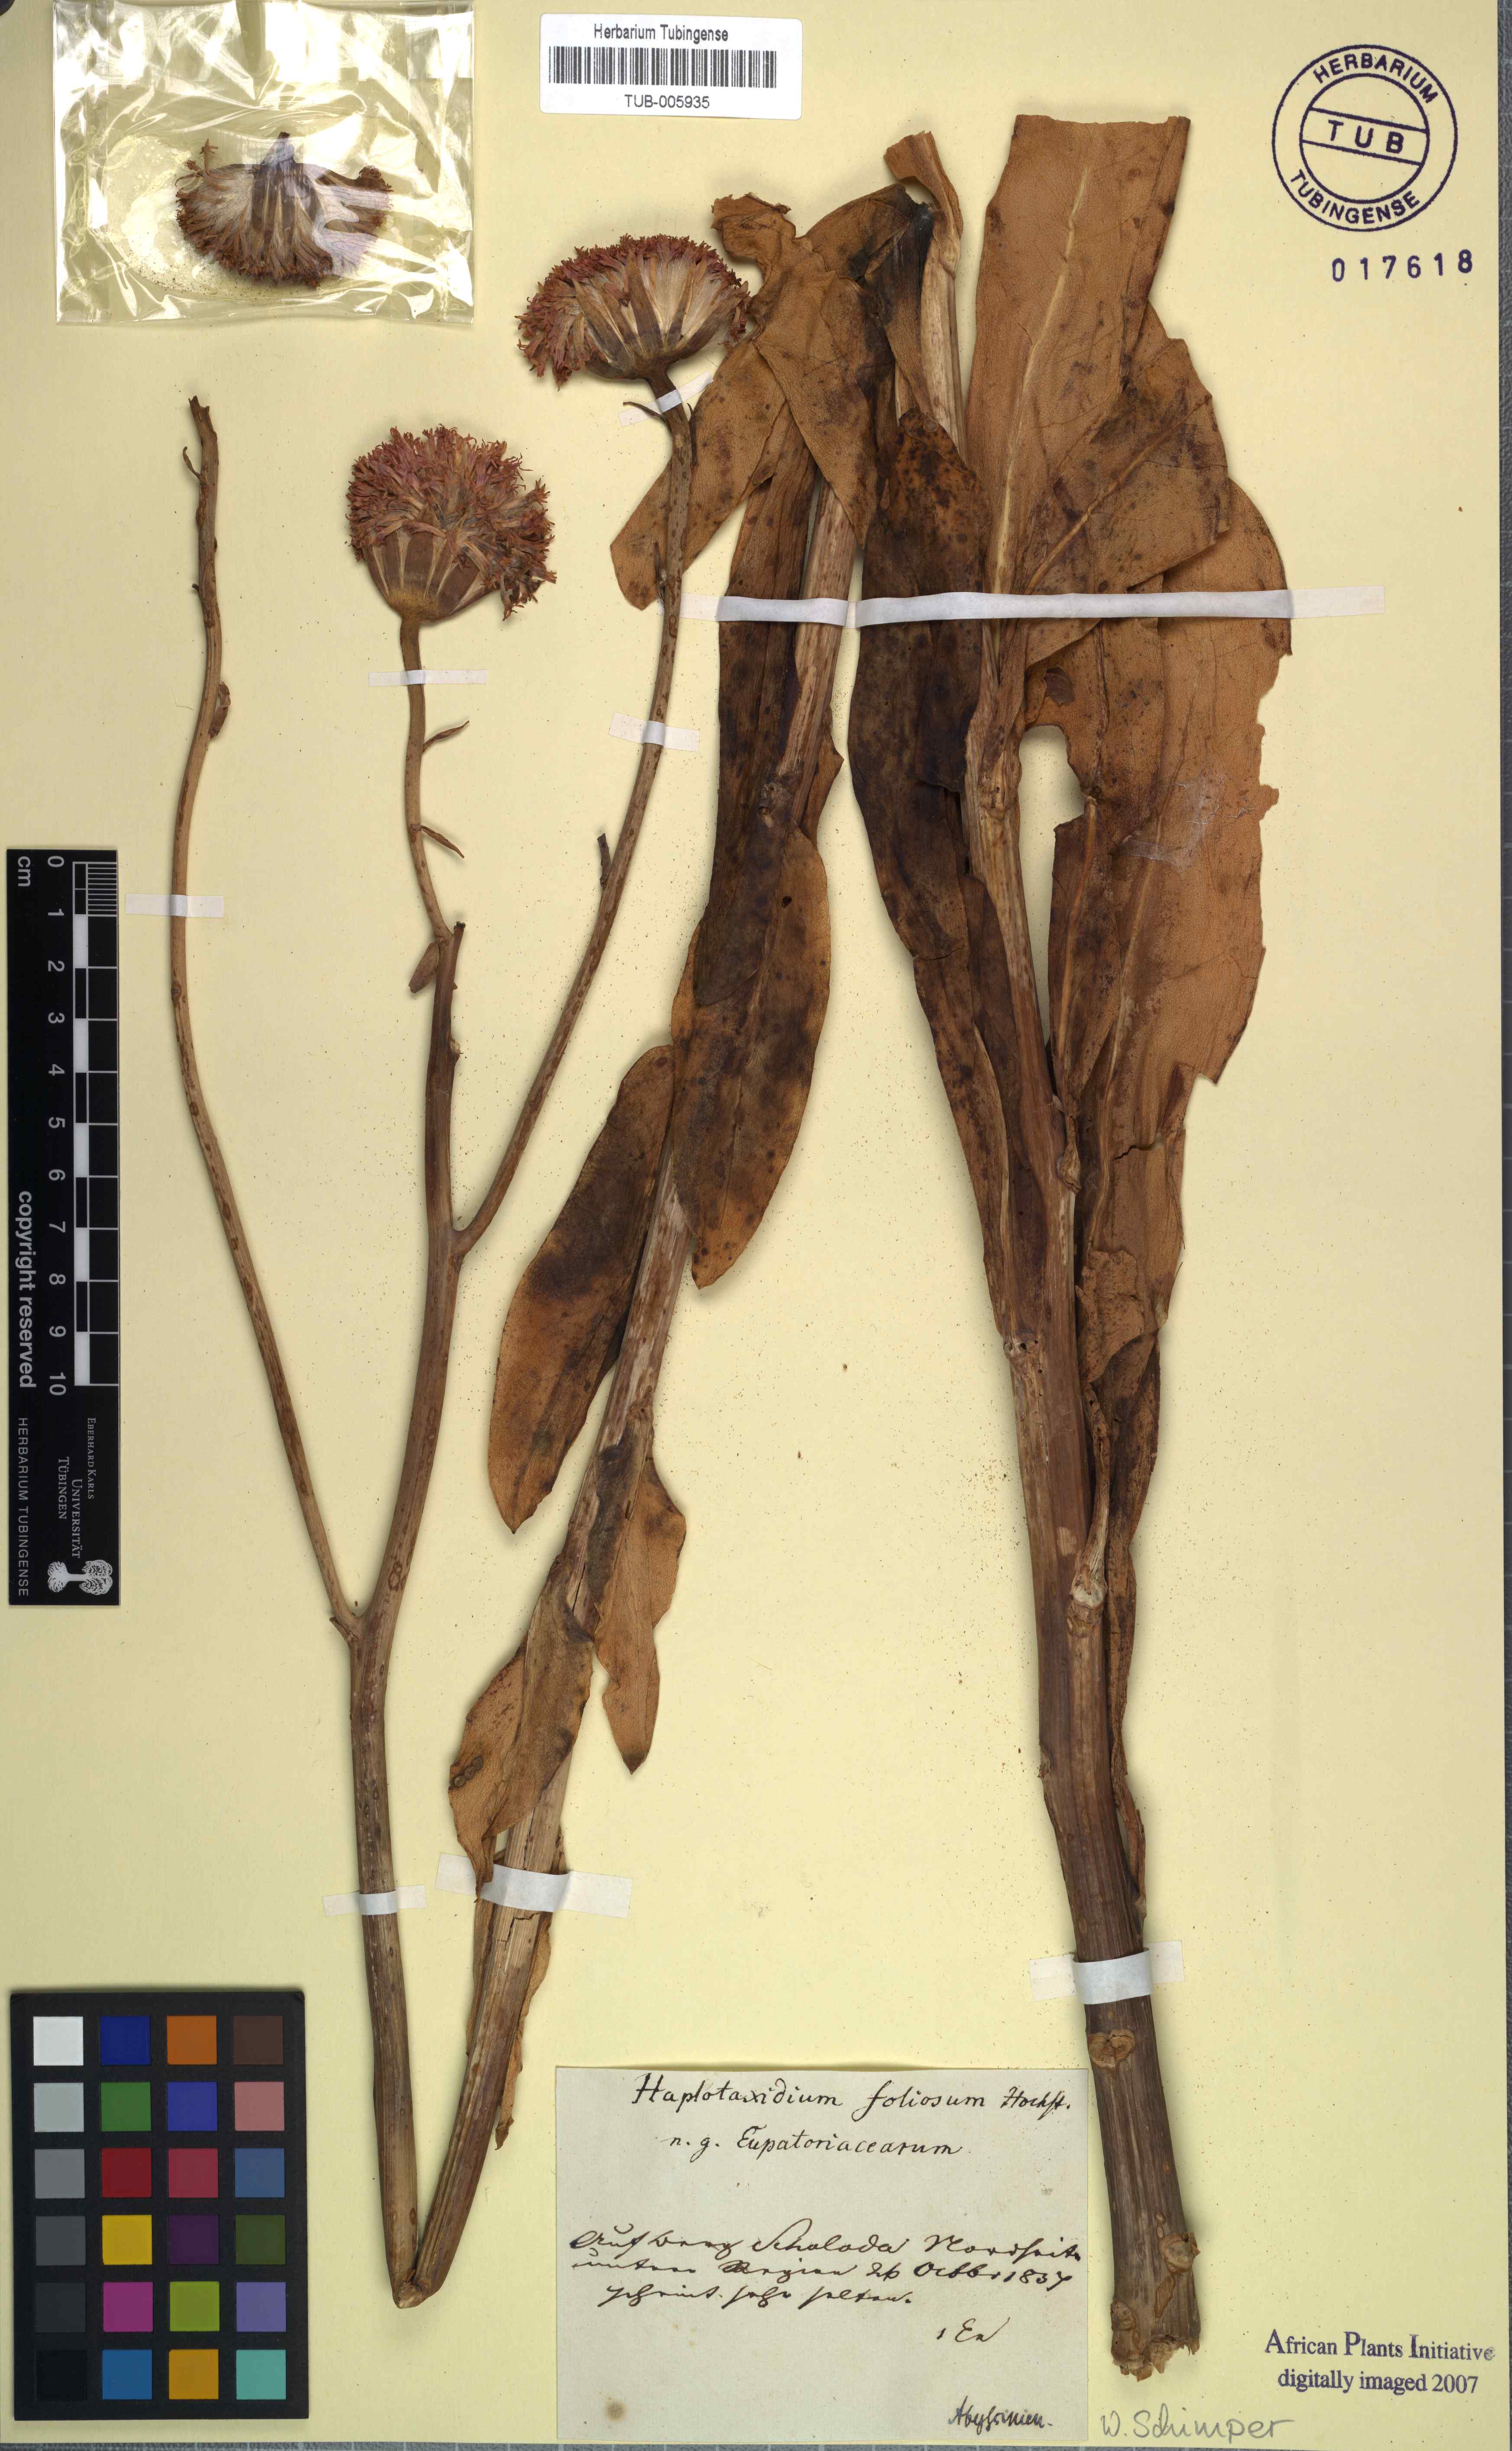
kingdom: Plantae
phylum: Tracheophyta
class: Magnoliopsida
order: Asterales
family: Asteraceae
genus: Saussurea
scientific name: Saussurea edgeworthii
